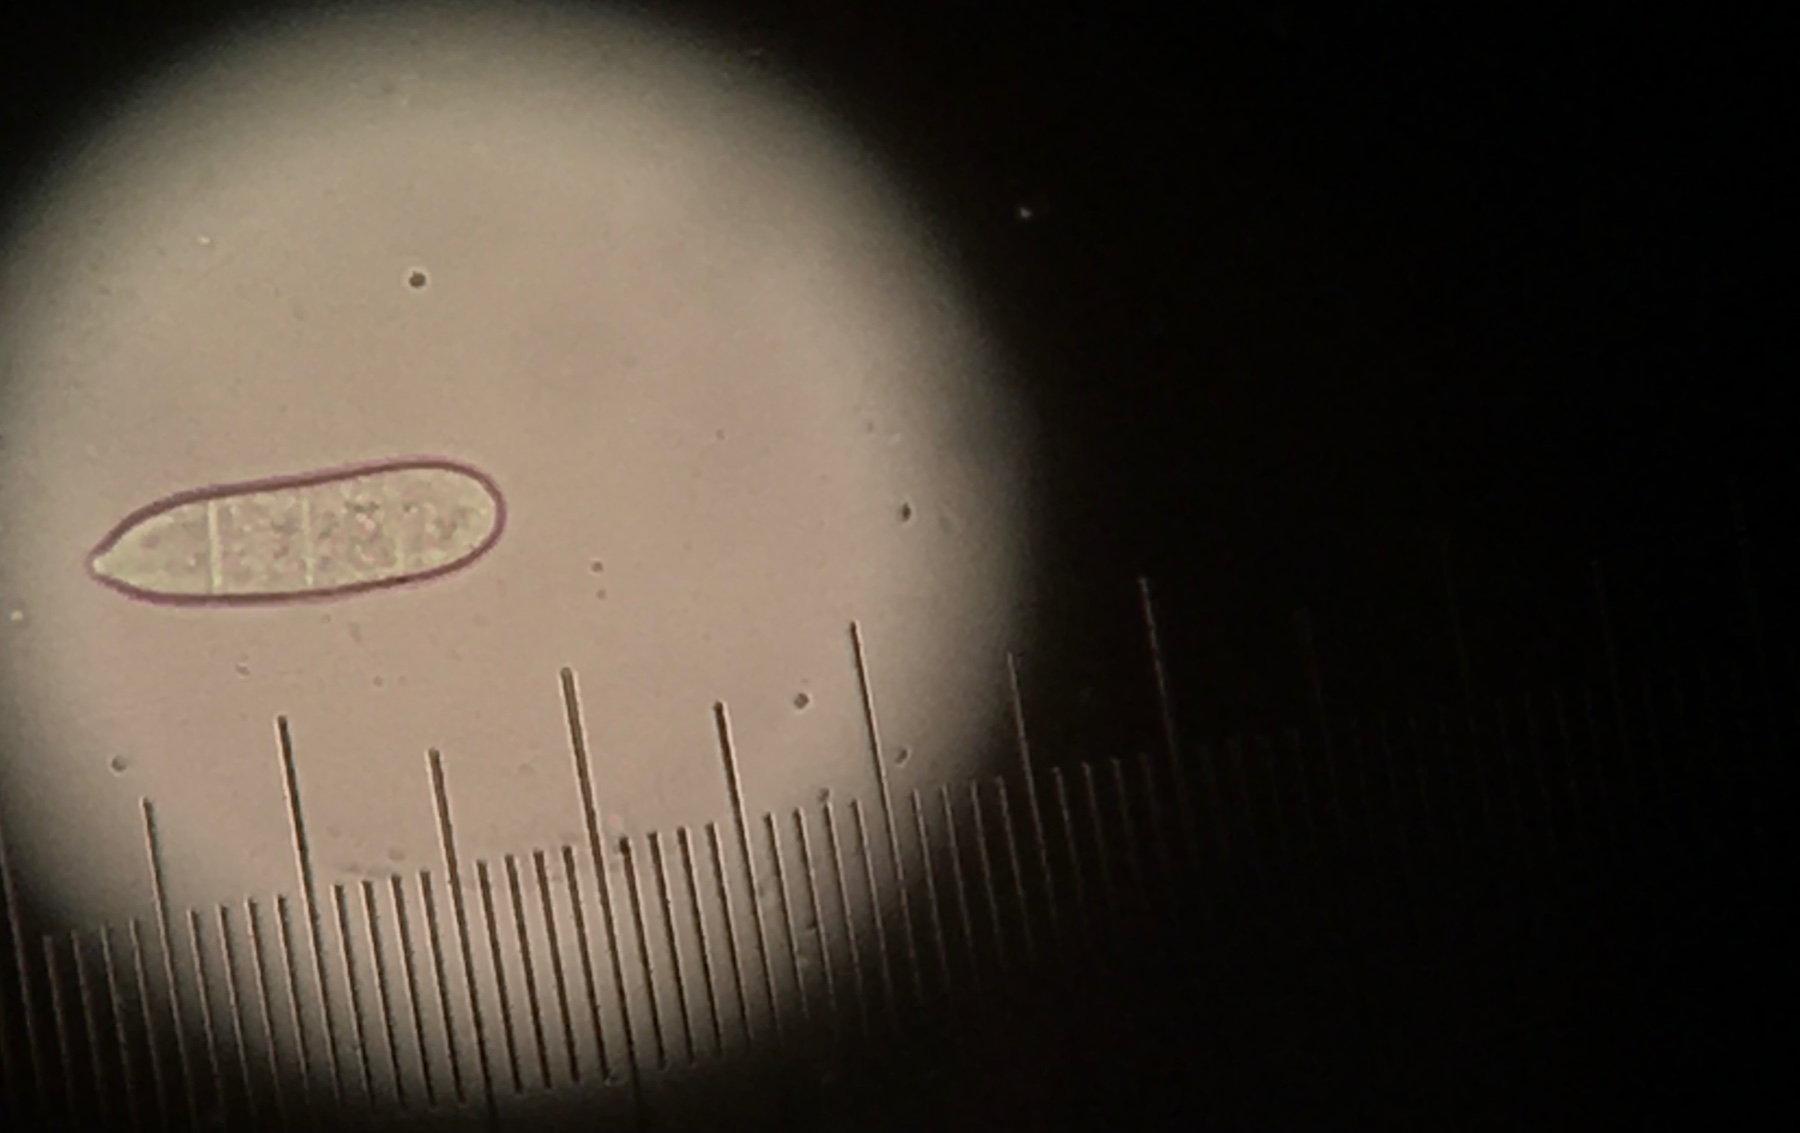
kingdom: Fungi
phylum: Ascomycota
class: Sordariomycetes
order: Hypocreales
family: Hypocreaceae
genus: Hypomyces
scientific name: Hypomyces rosellus
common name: rosa snylteskorpe
